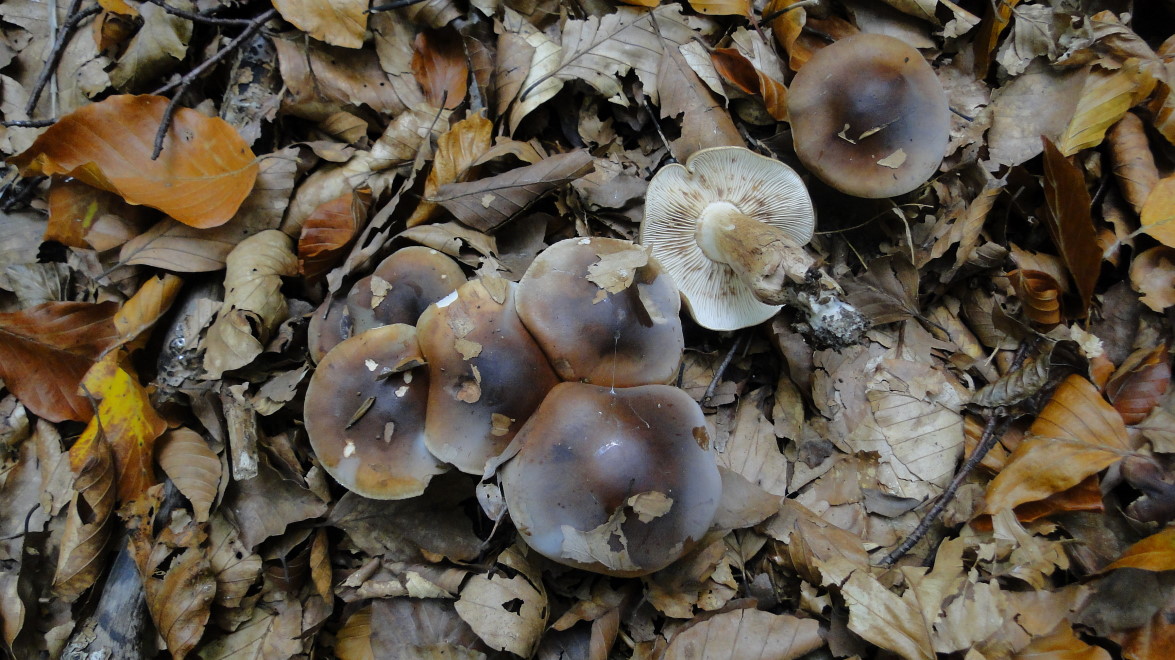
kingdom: Fungi
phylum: Basidiomycota
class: Agaricomycetes
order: Agaricales
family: Tricholomataceae
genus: Tricholoma
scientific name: Tricholoma ustale
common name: sveden ridderhat
